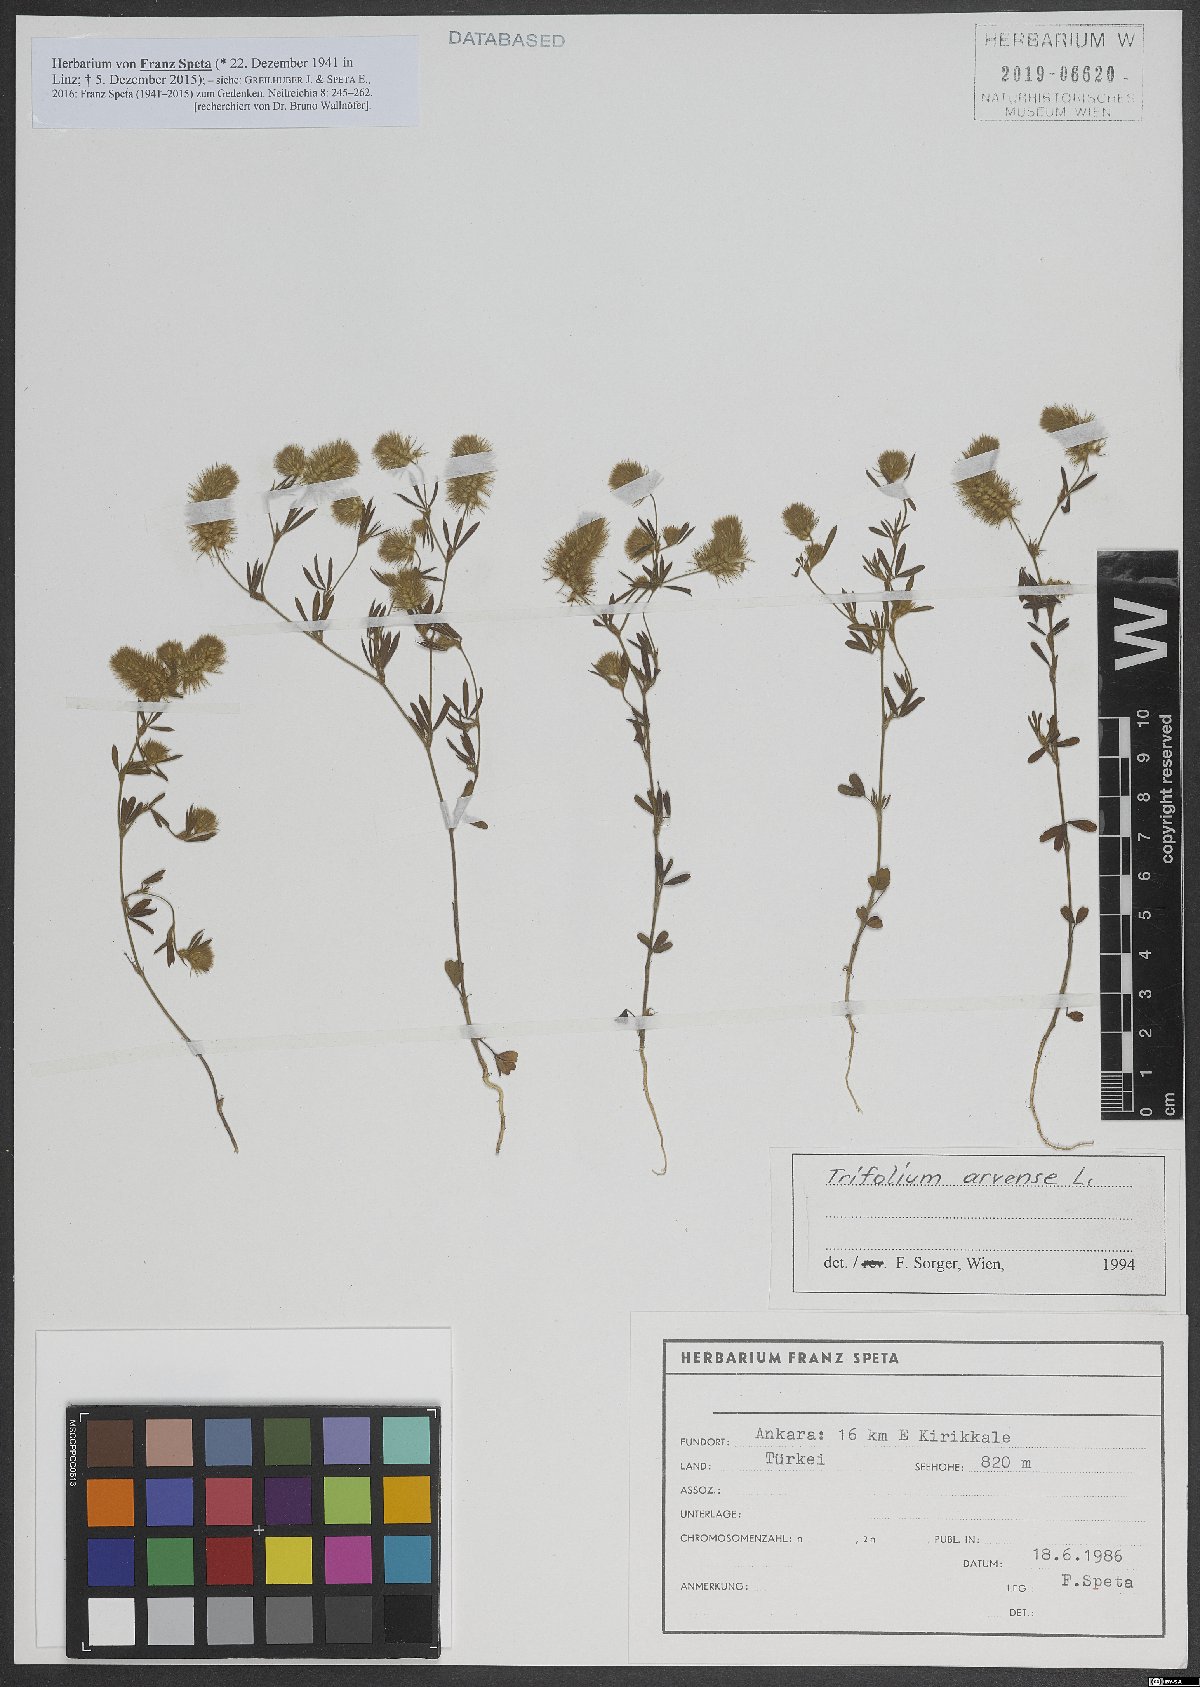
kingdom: Plantae
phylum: Tracheophyta
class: Magnoliopsida
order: Fabales
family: Fabaceae
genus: Trifolium
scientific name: Trifolium arvense
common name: Hare's-foot clover
